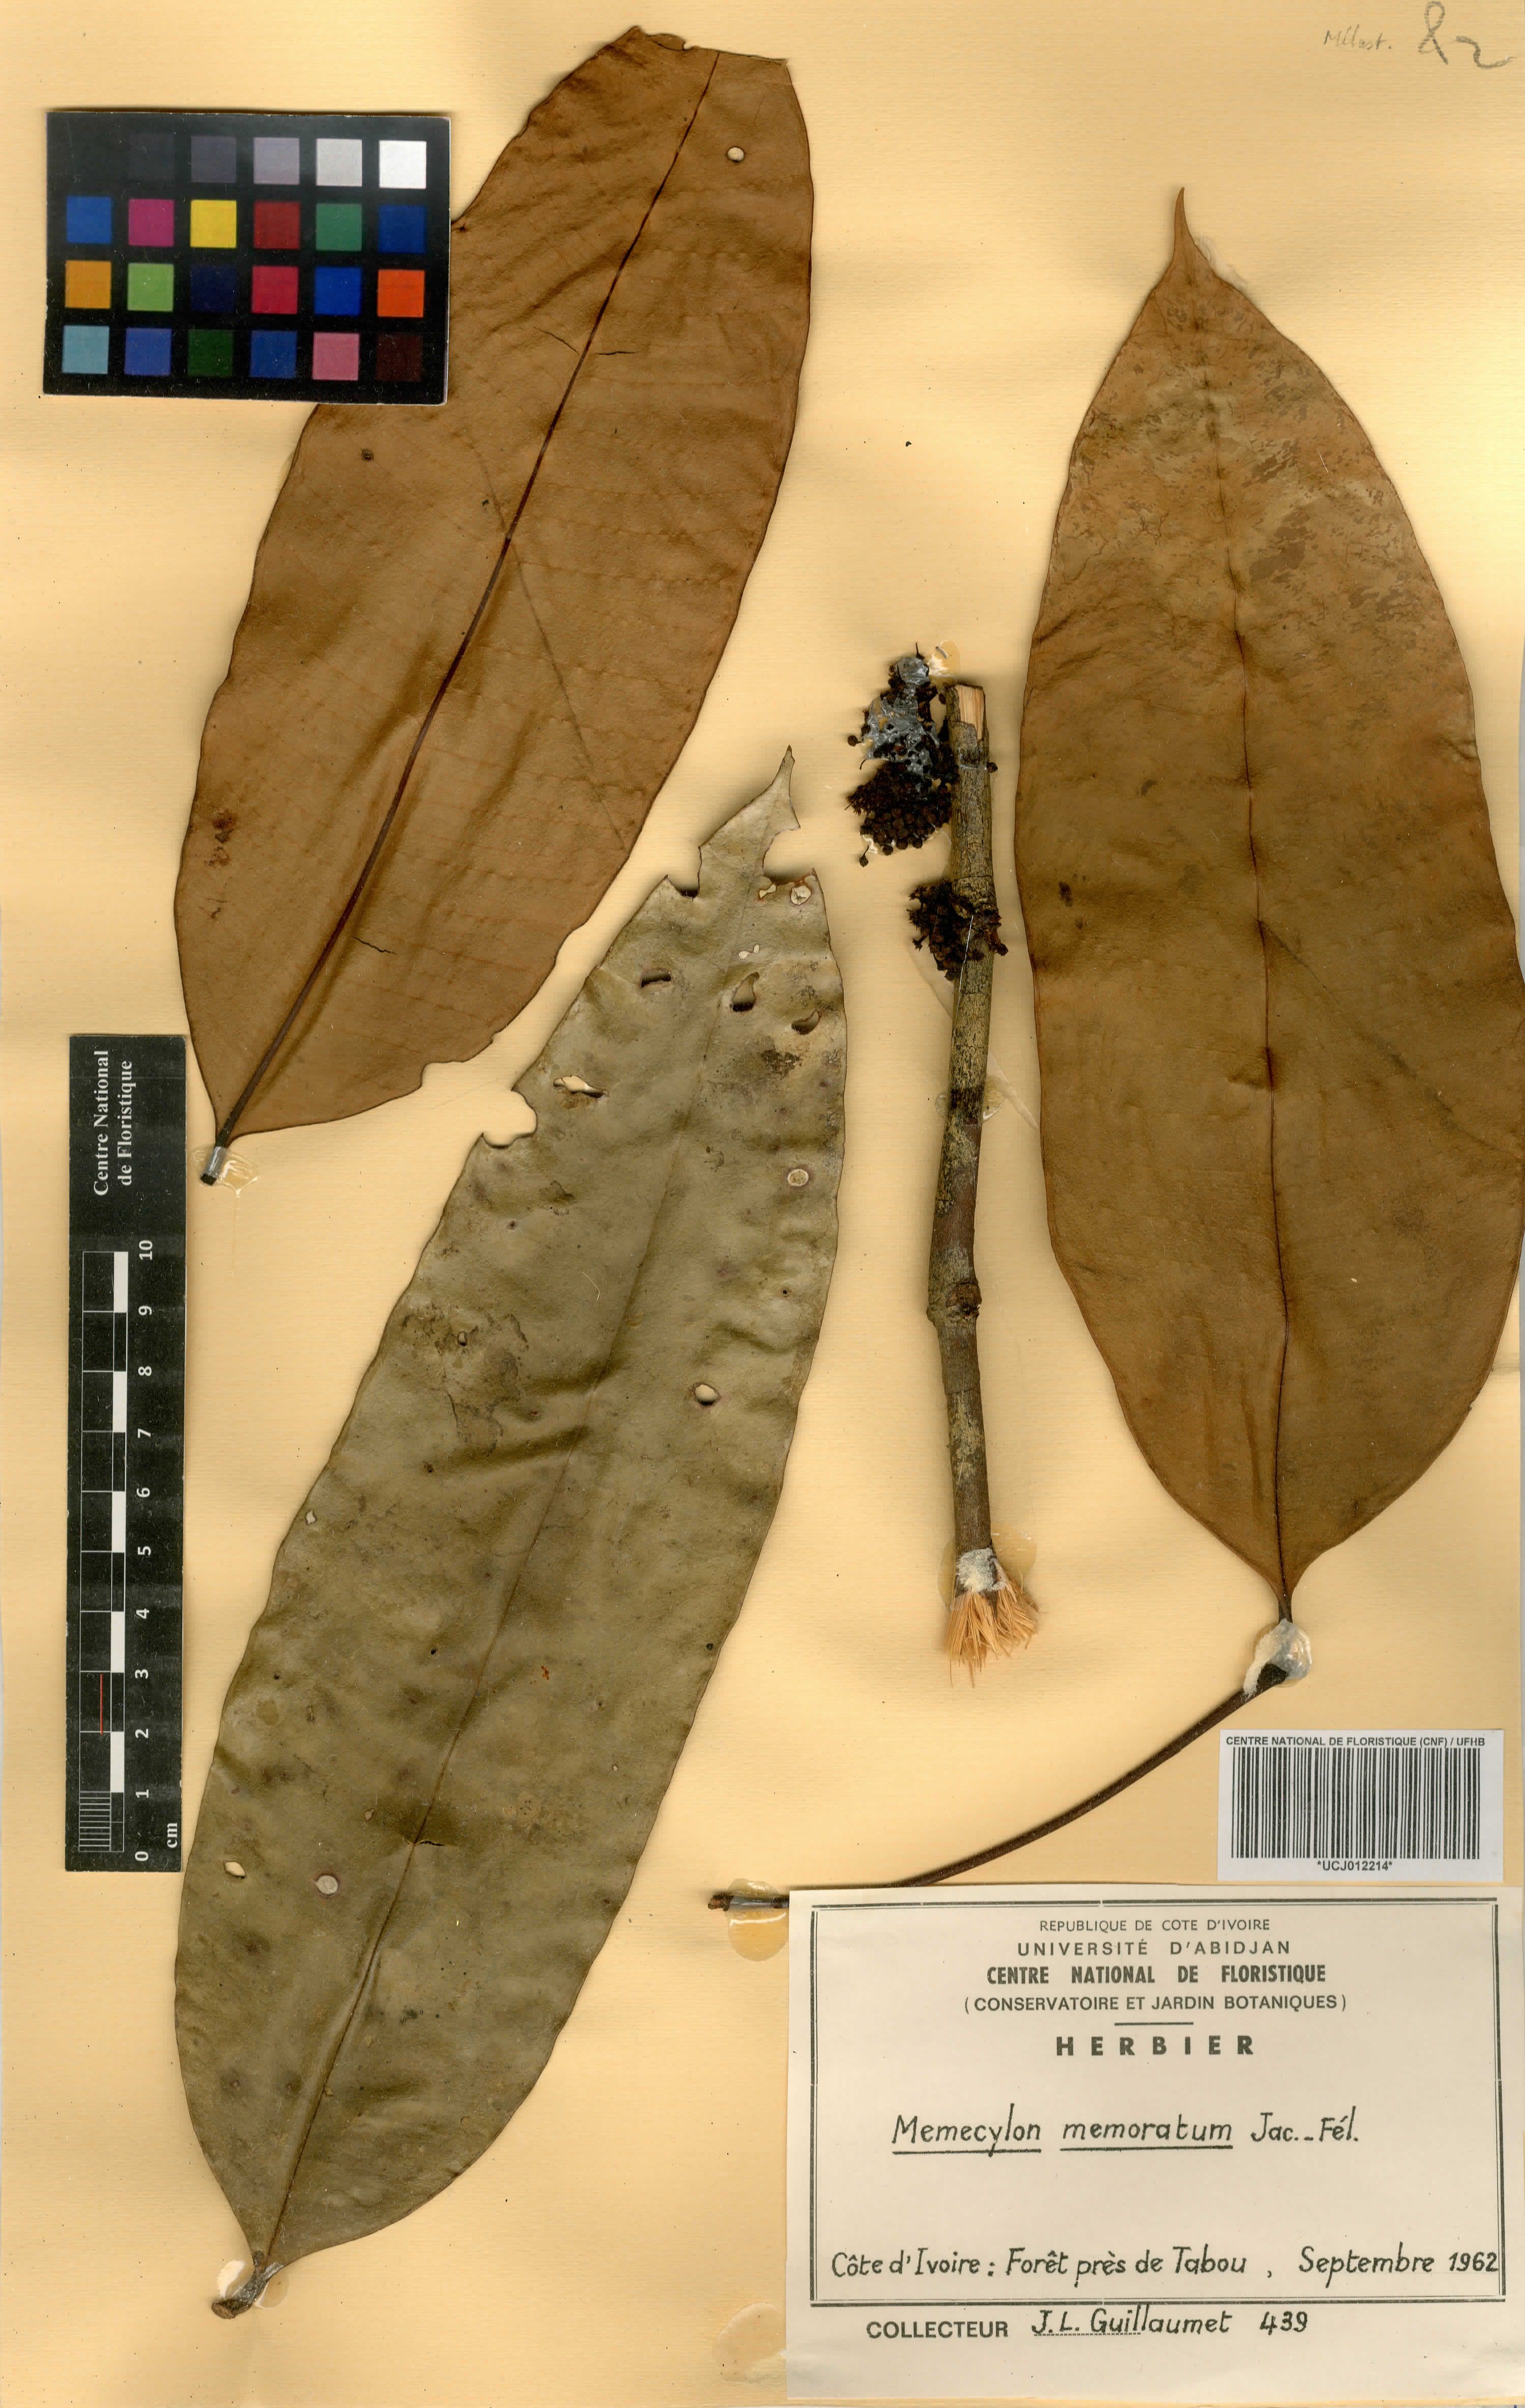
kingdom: Plantae
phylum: Tracheophyta
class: Magnoliopsida
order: Myrtales
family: Melastomataceae
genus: Memecylon
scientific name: Memecylon memoratum
